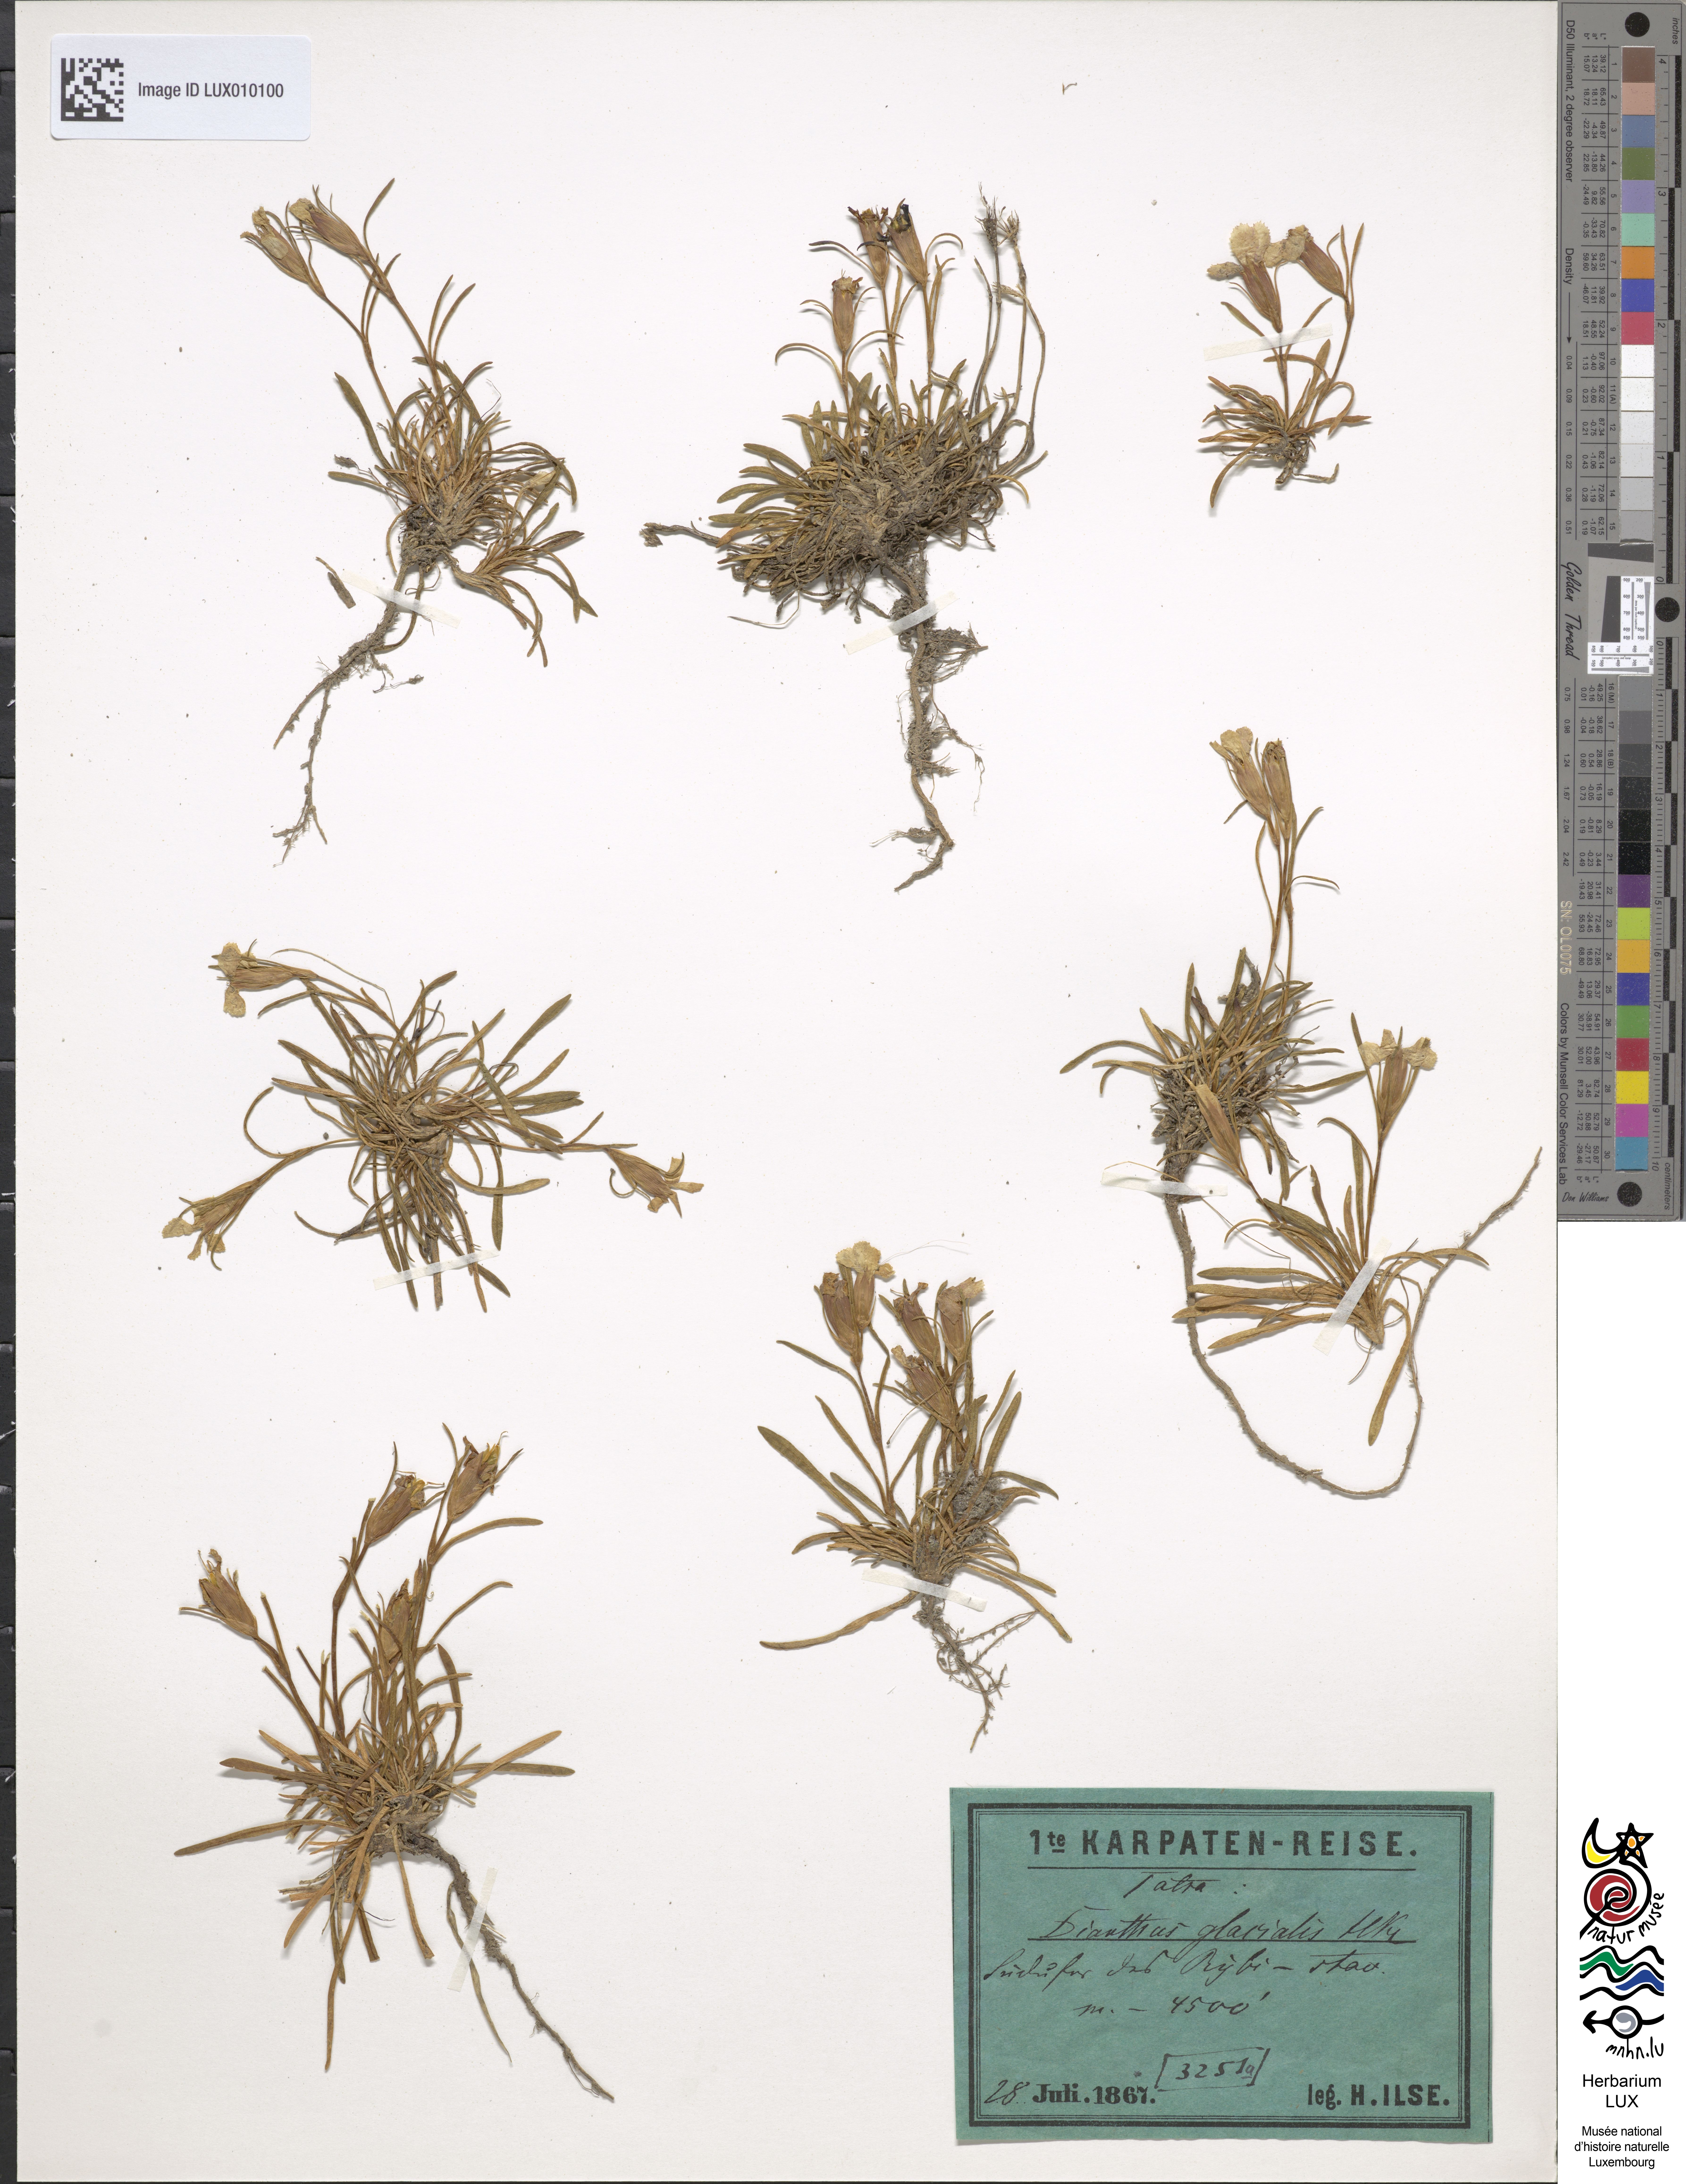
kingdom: Plantae
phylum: Tracheophyta
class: Magnoliopsida
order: Caryophyllales
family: Caryophyllaceae
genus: Dianthus
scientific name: Dianthus glacialis
